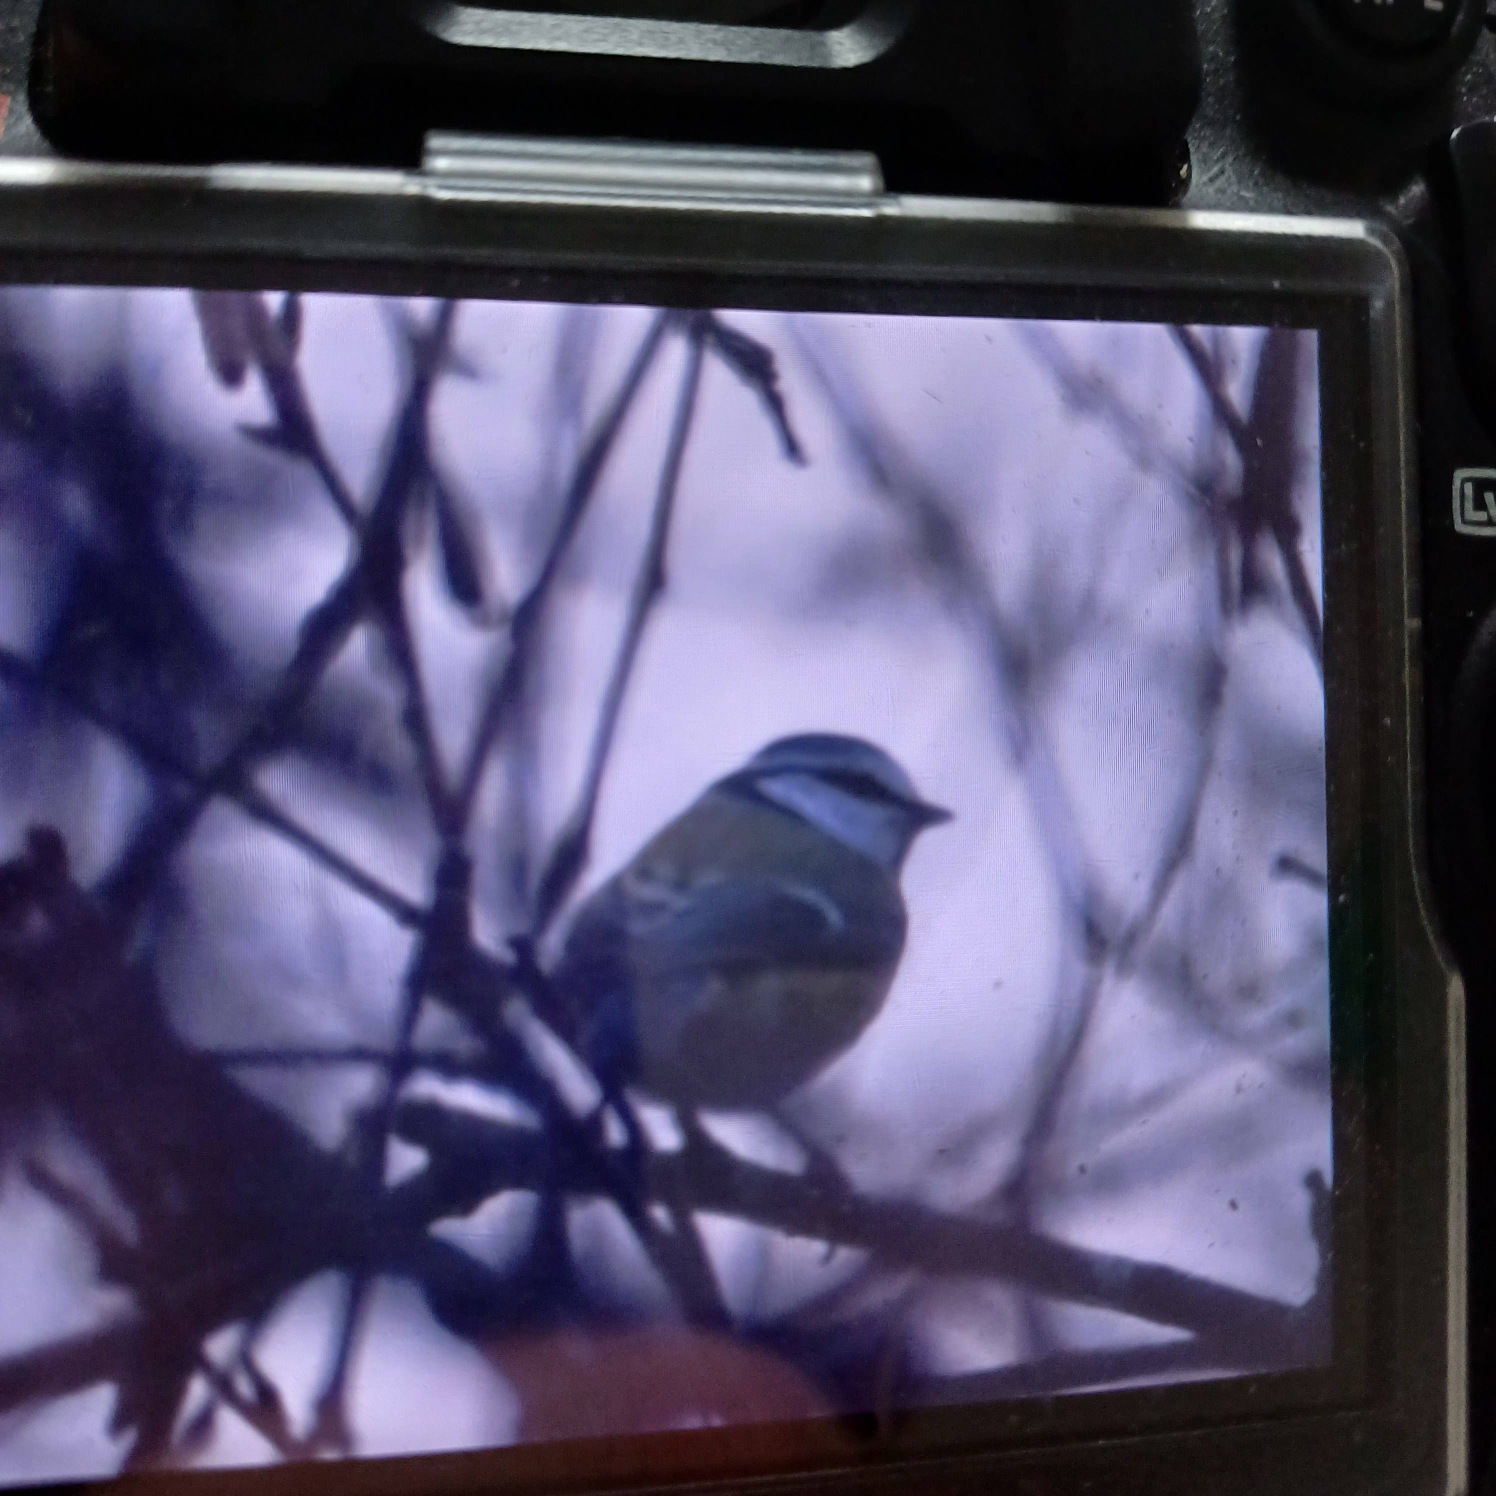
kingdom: Animalia
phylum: Chordata
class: Aves
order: Passeriformes
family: Paridae
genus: Cyanistes
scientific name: Cyanistes caeruleus
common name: Blåmejse
